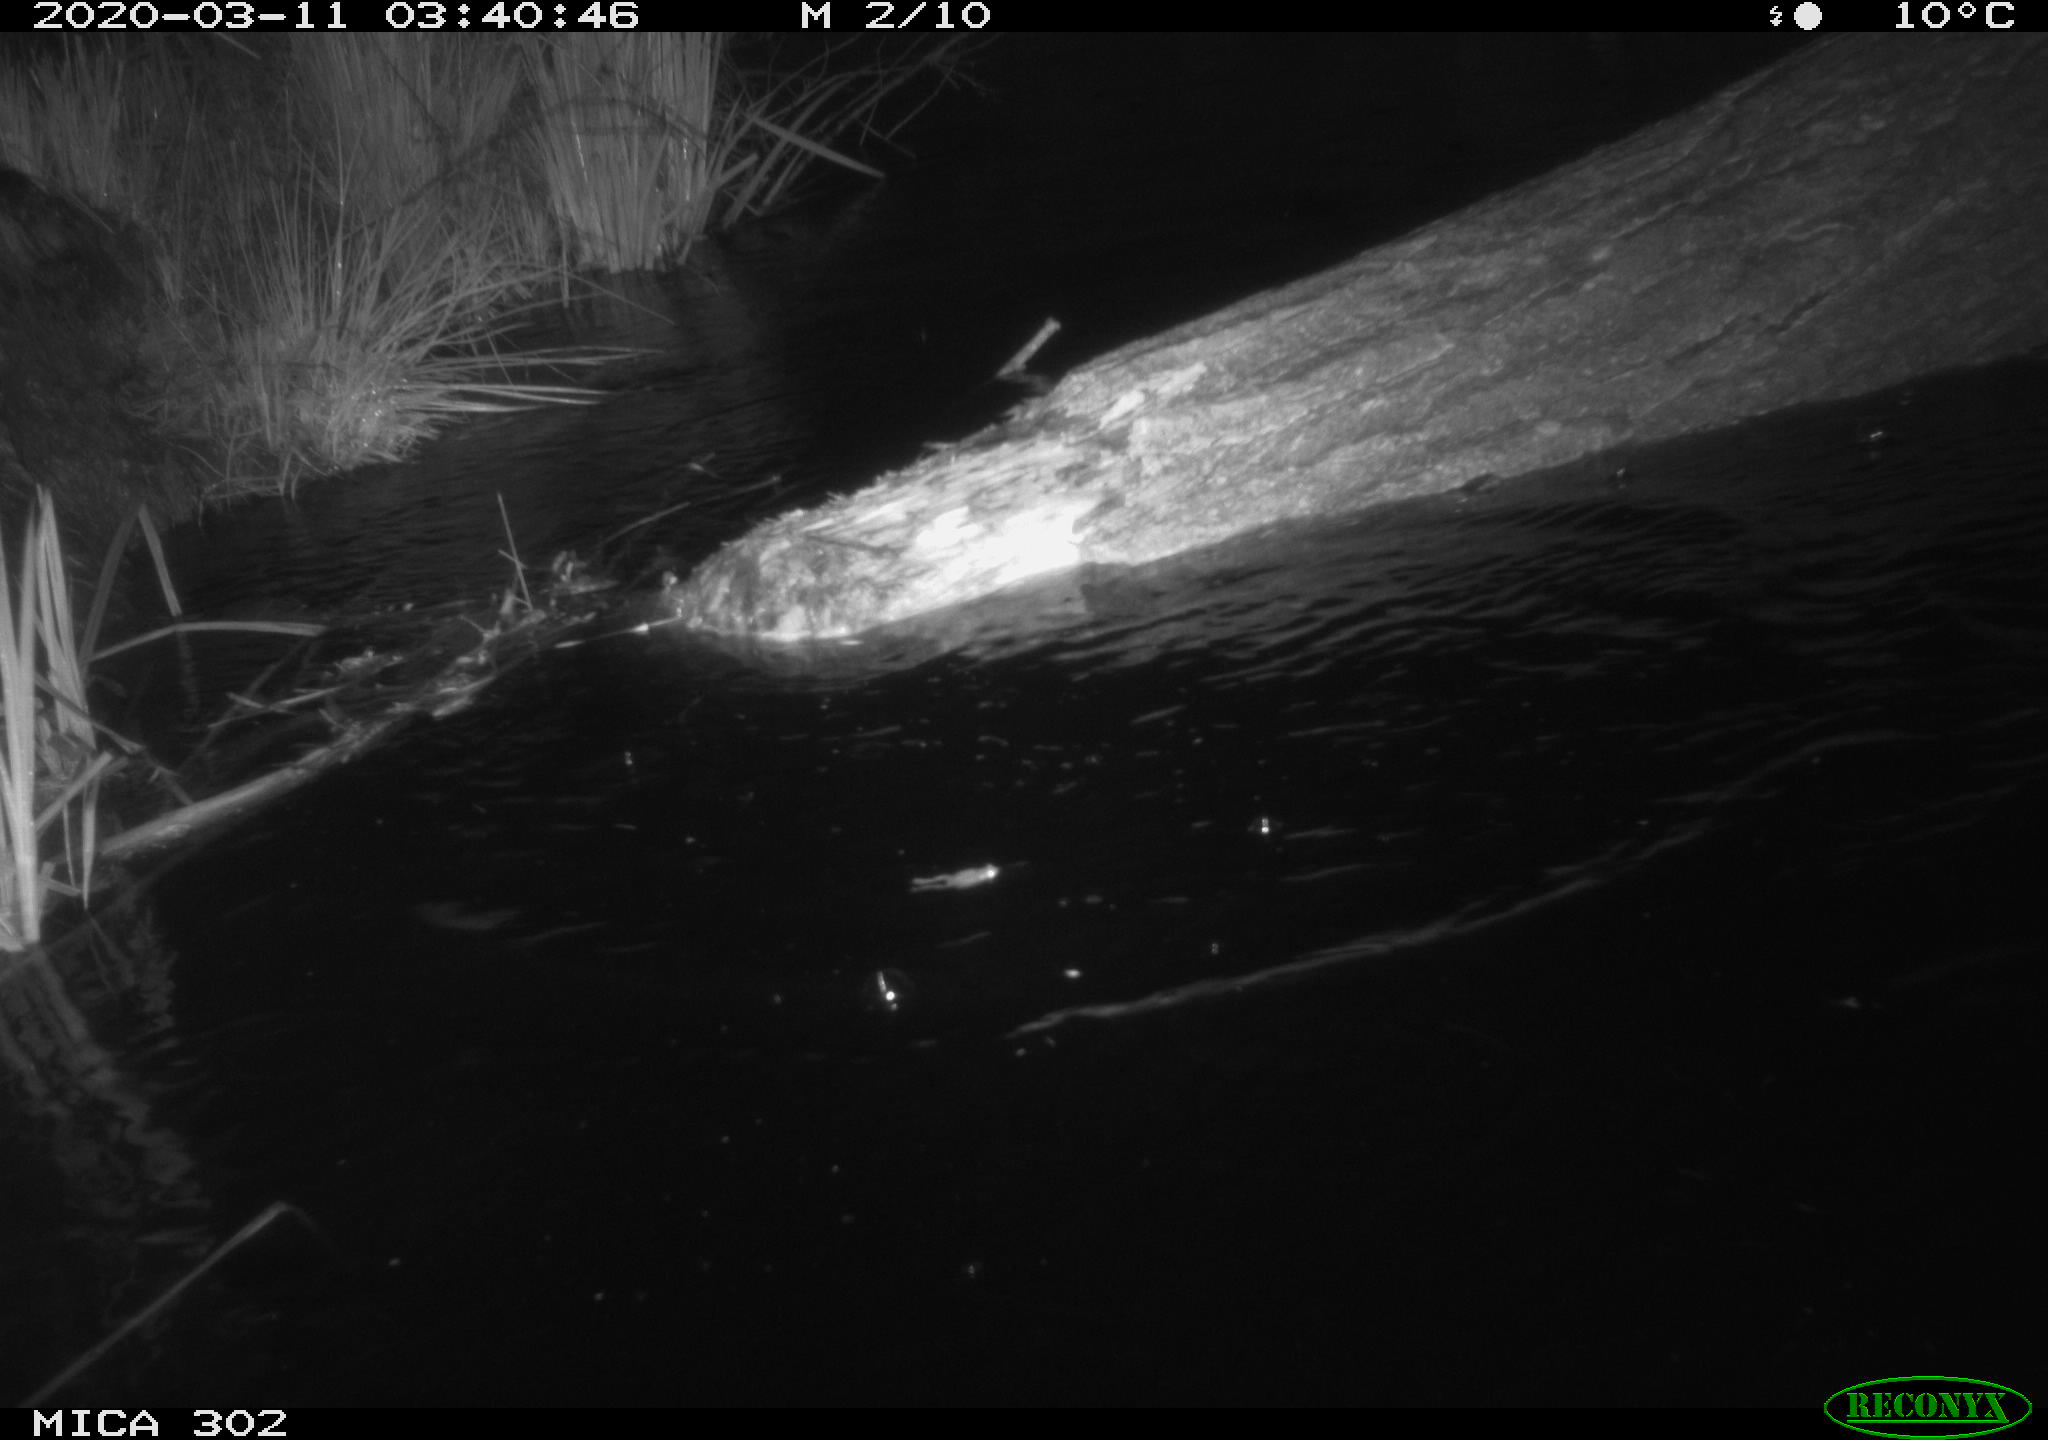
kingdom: Animalia
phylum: Chordata
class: Mammalia
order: Rodentia
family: Muridae
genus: Rattus
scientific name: Rattus norvegicus
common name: Brown rat
